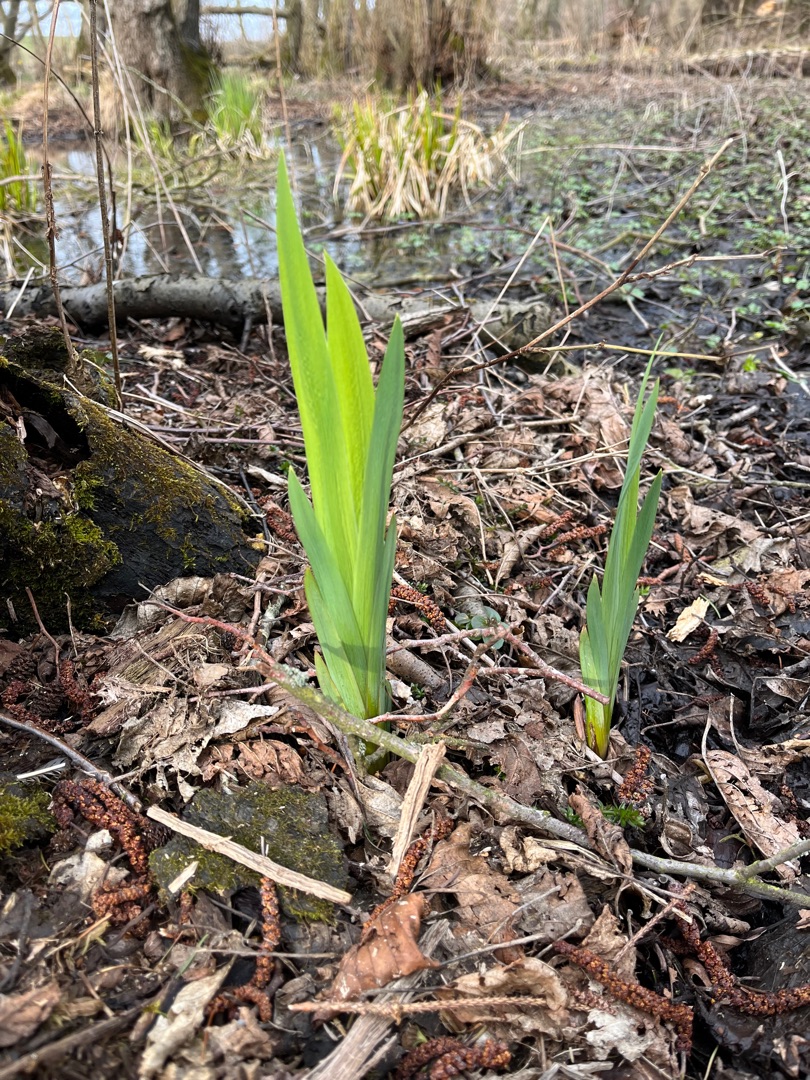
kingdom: Plantae
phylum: Tracheophyta
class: Liliopsida
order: Asparagales
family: Iridaceae
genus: Iris
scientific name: Iris pseudacorus
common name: Gul iris
